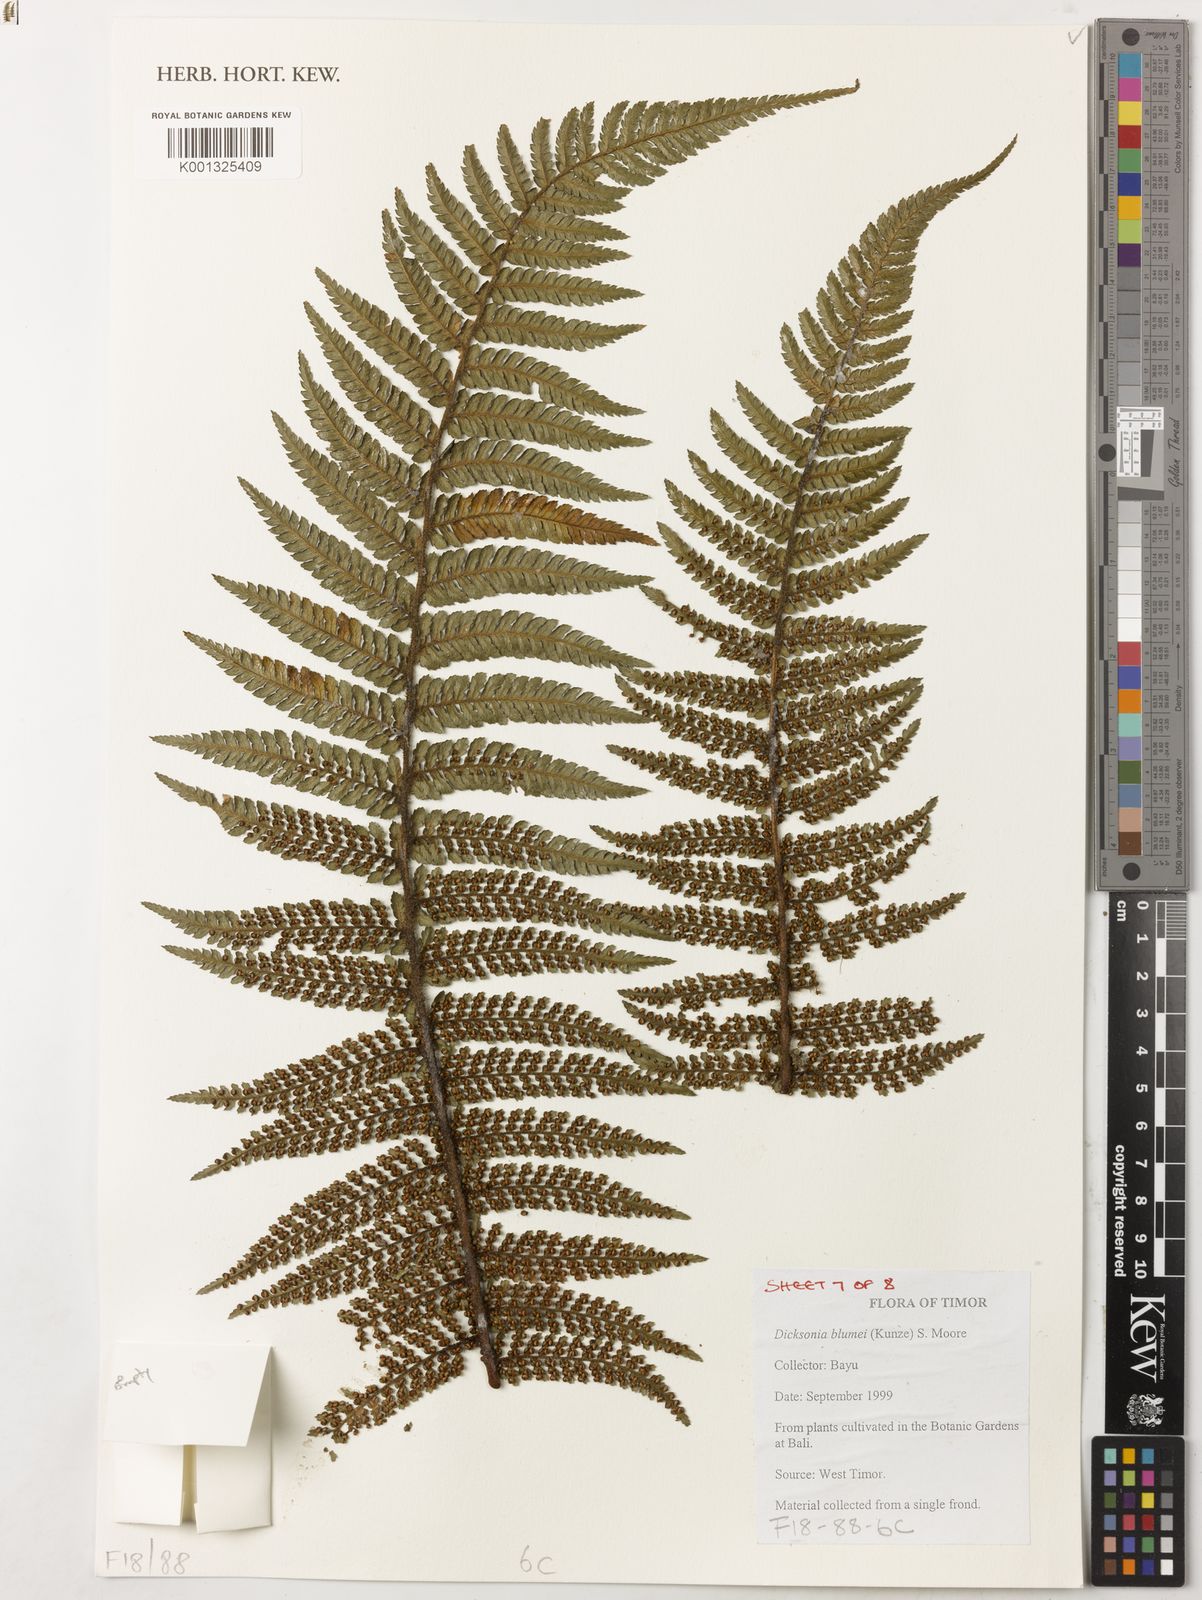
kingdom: Plantae
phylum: Tracheophyta
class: Polypodiopsida
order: Cyatheales
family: Dicksoniaceae
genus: Dicksonia
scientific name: Dicksonia
